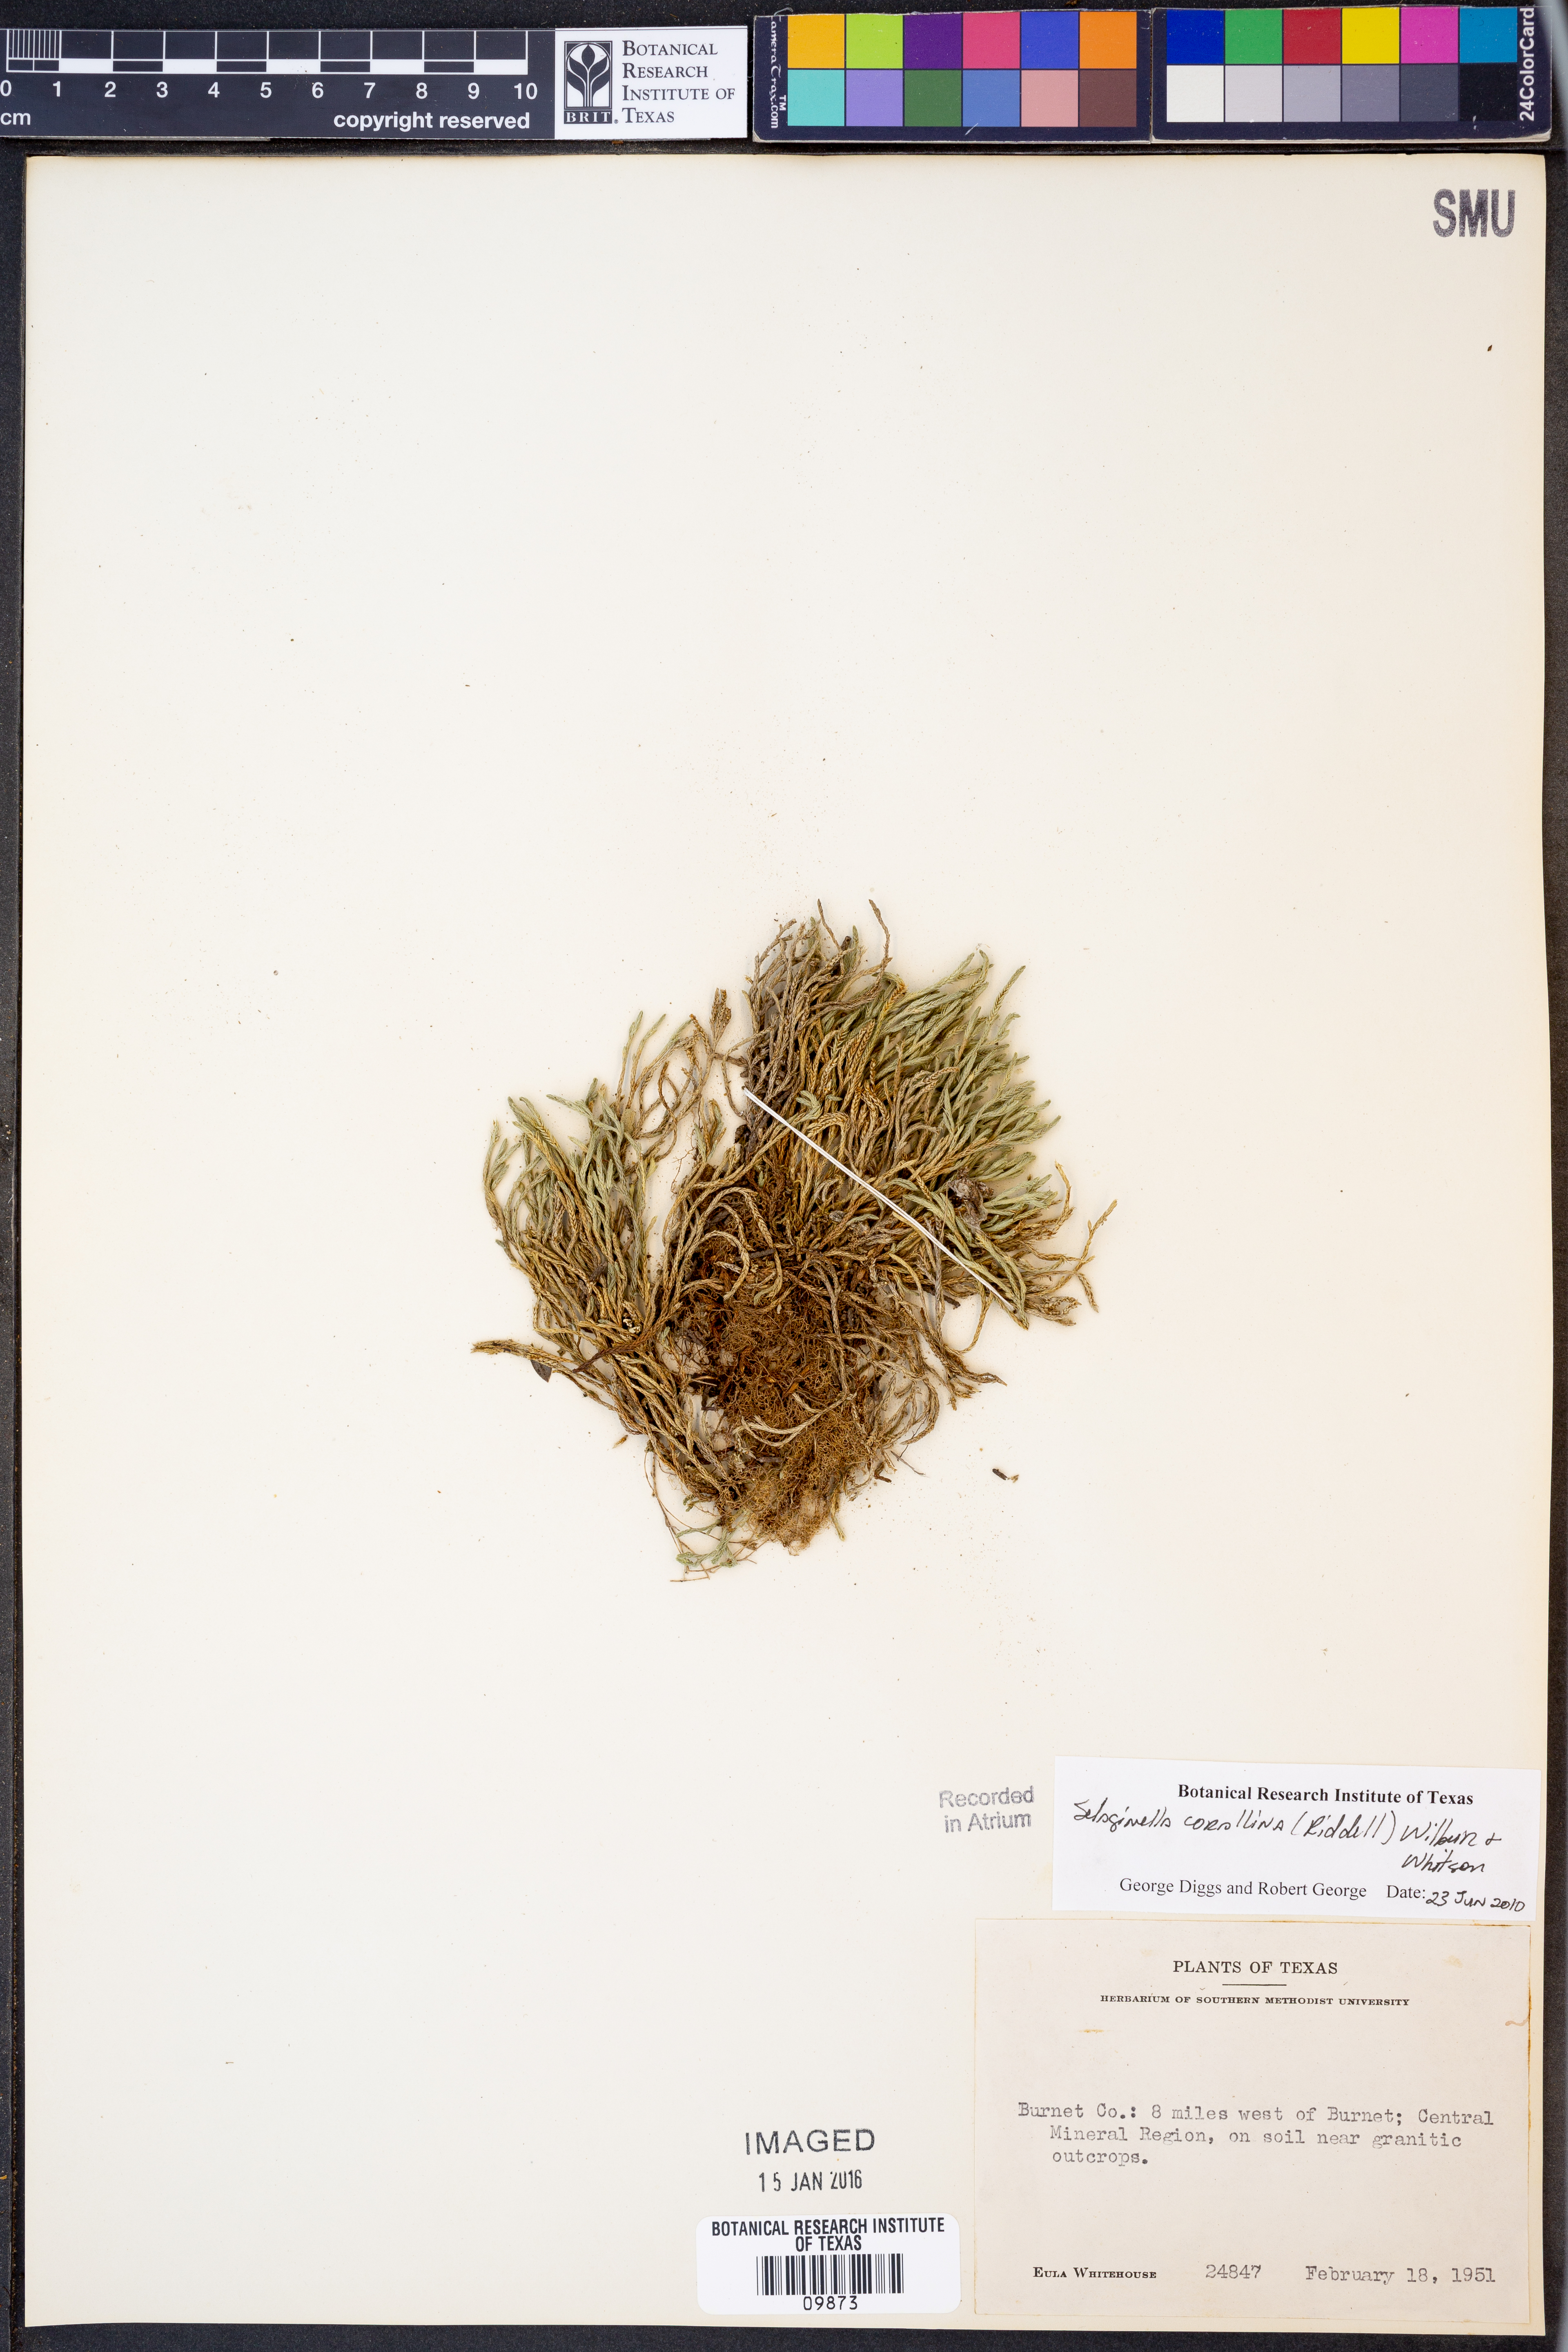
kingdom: Plantae
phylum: Tracheophyta
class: Lycopodiopsida
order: Selaginellales
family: Selaginellaceae
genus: Selaginella
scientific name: Selaginella corallina
